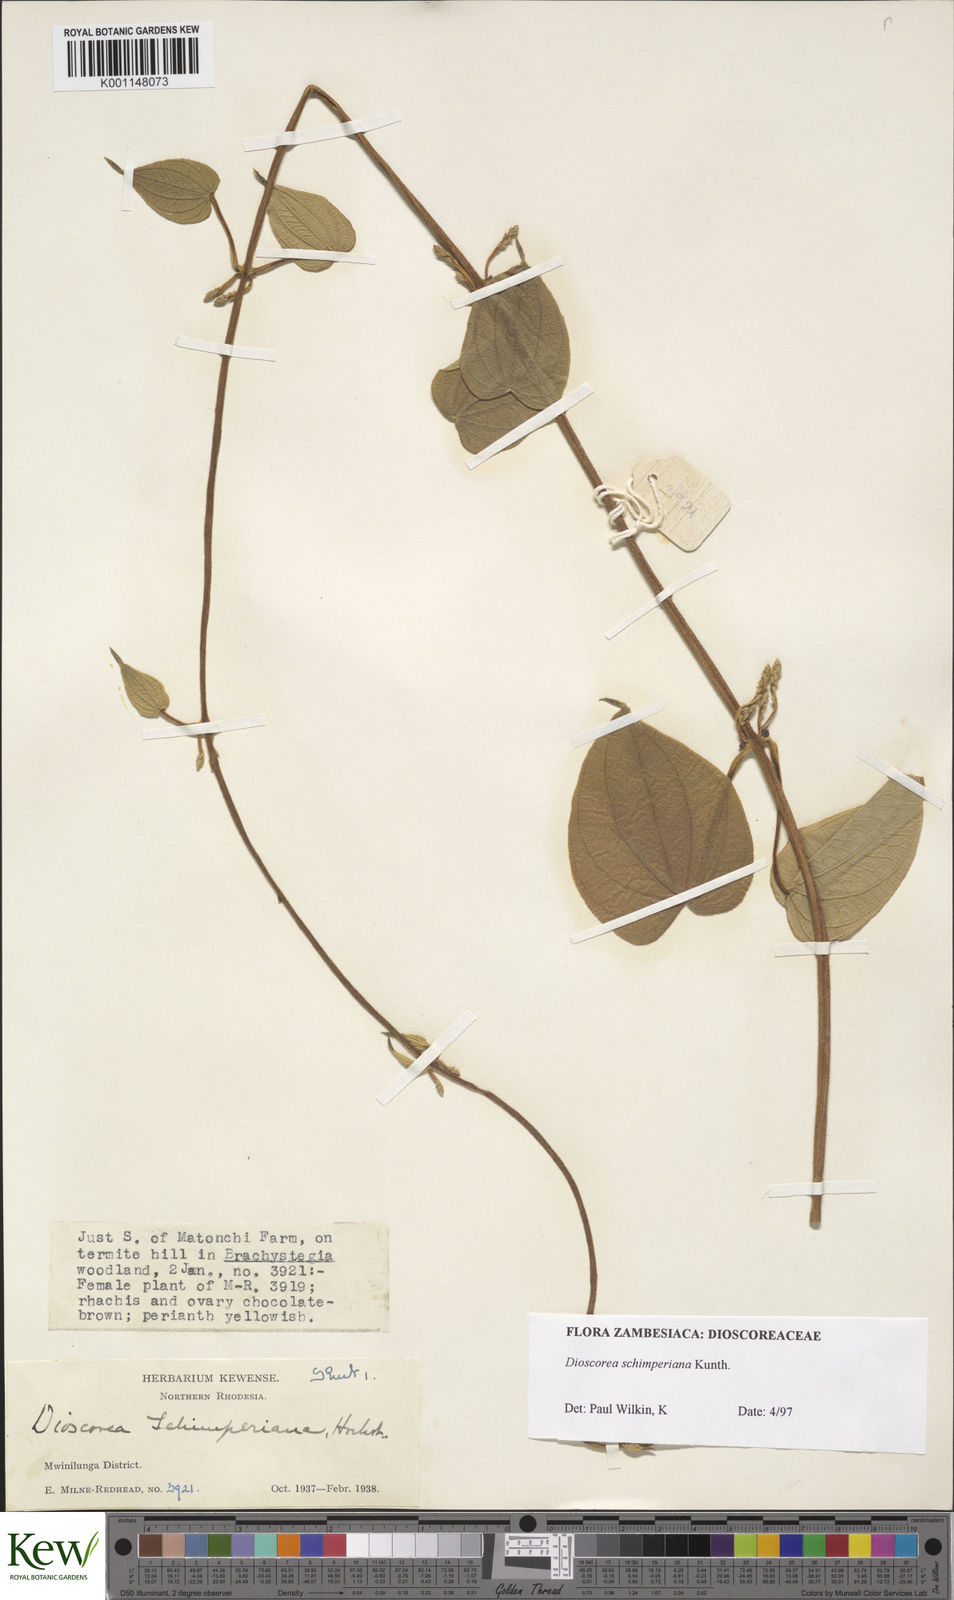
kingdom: Plantae
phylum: Tracheophyta
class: Liliopsida
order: Dioscoreales
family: Dioscoreaceae
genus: Dioscorea
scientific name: Dioscorea schimperiana
